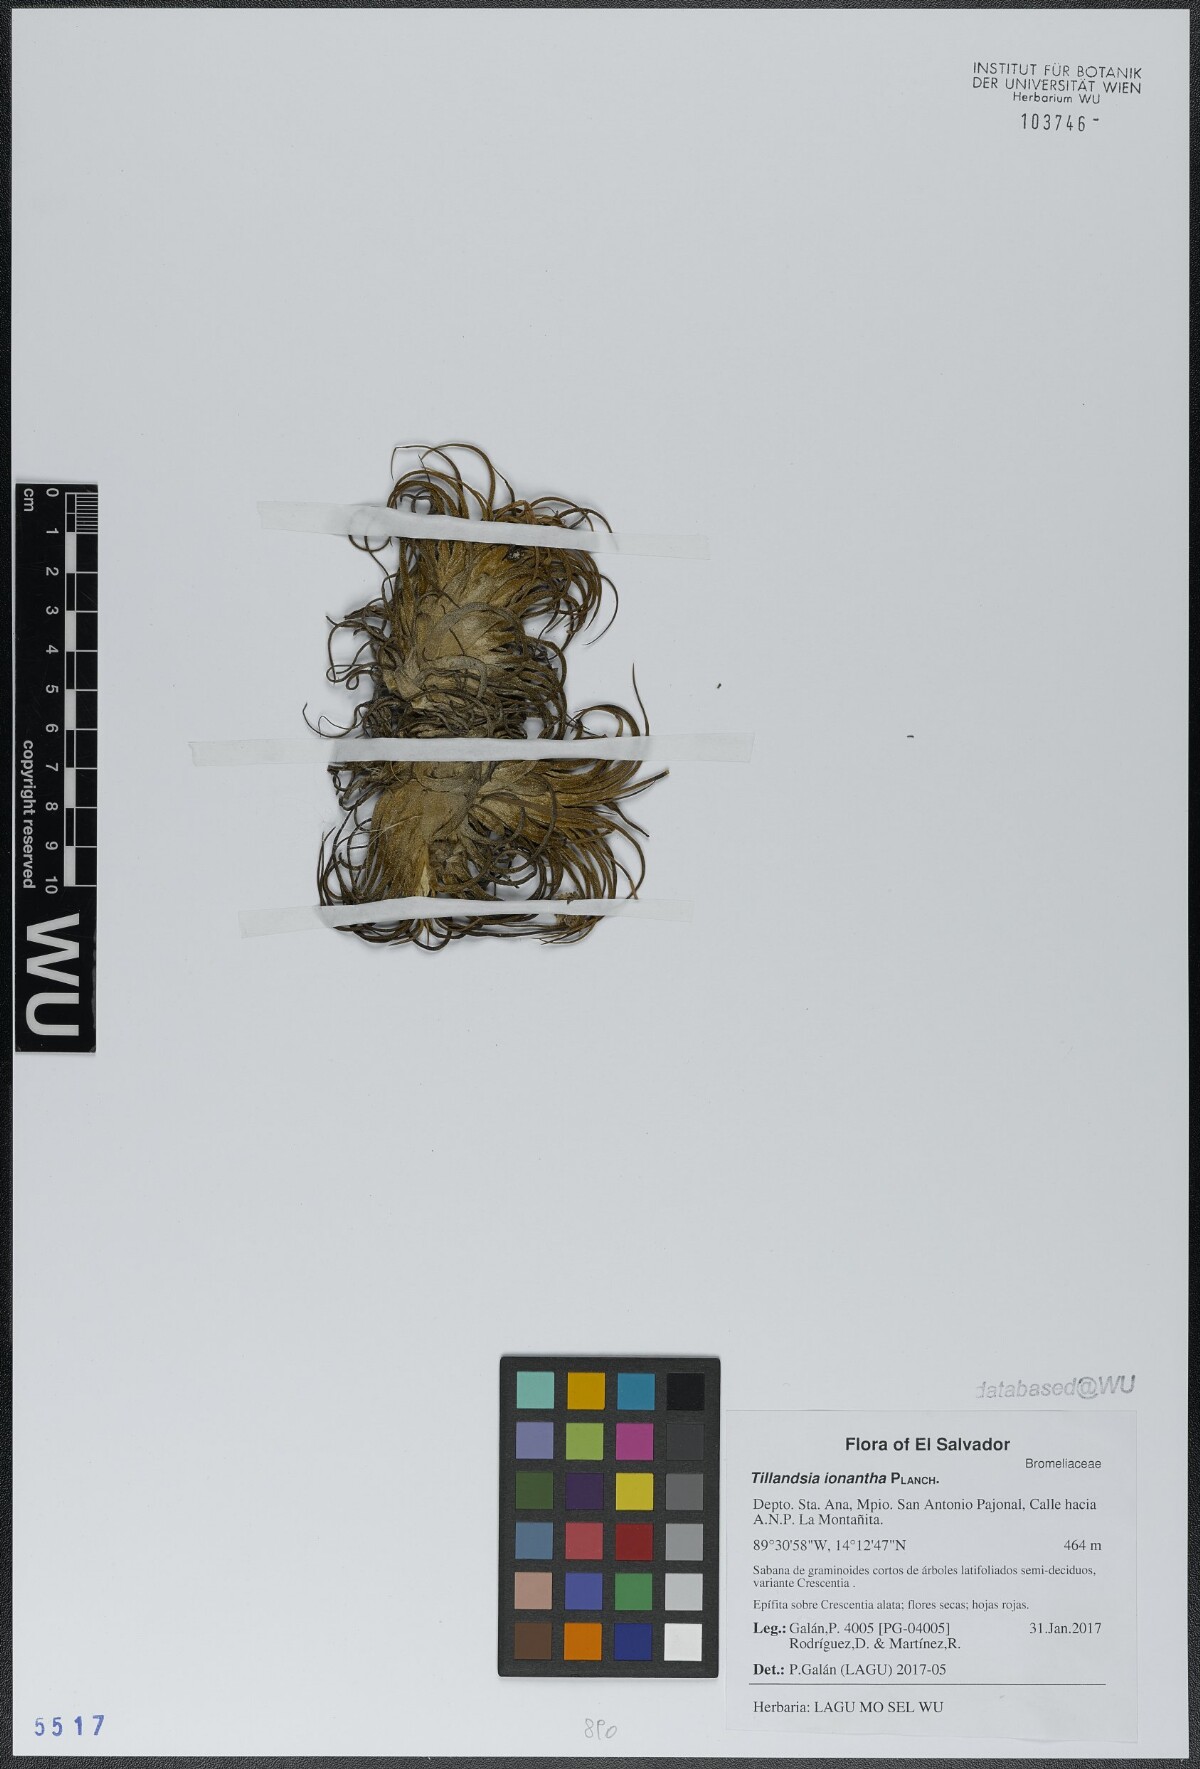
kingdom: Plantae
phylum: Tracheophyta
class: Liliopsida
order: Poales
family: Bromeliaceae
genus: Tillandsia
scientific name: Tillandsia ionantha
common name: Sky plant
